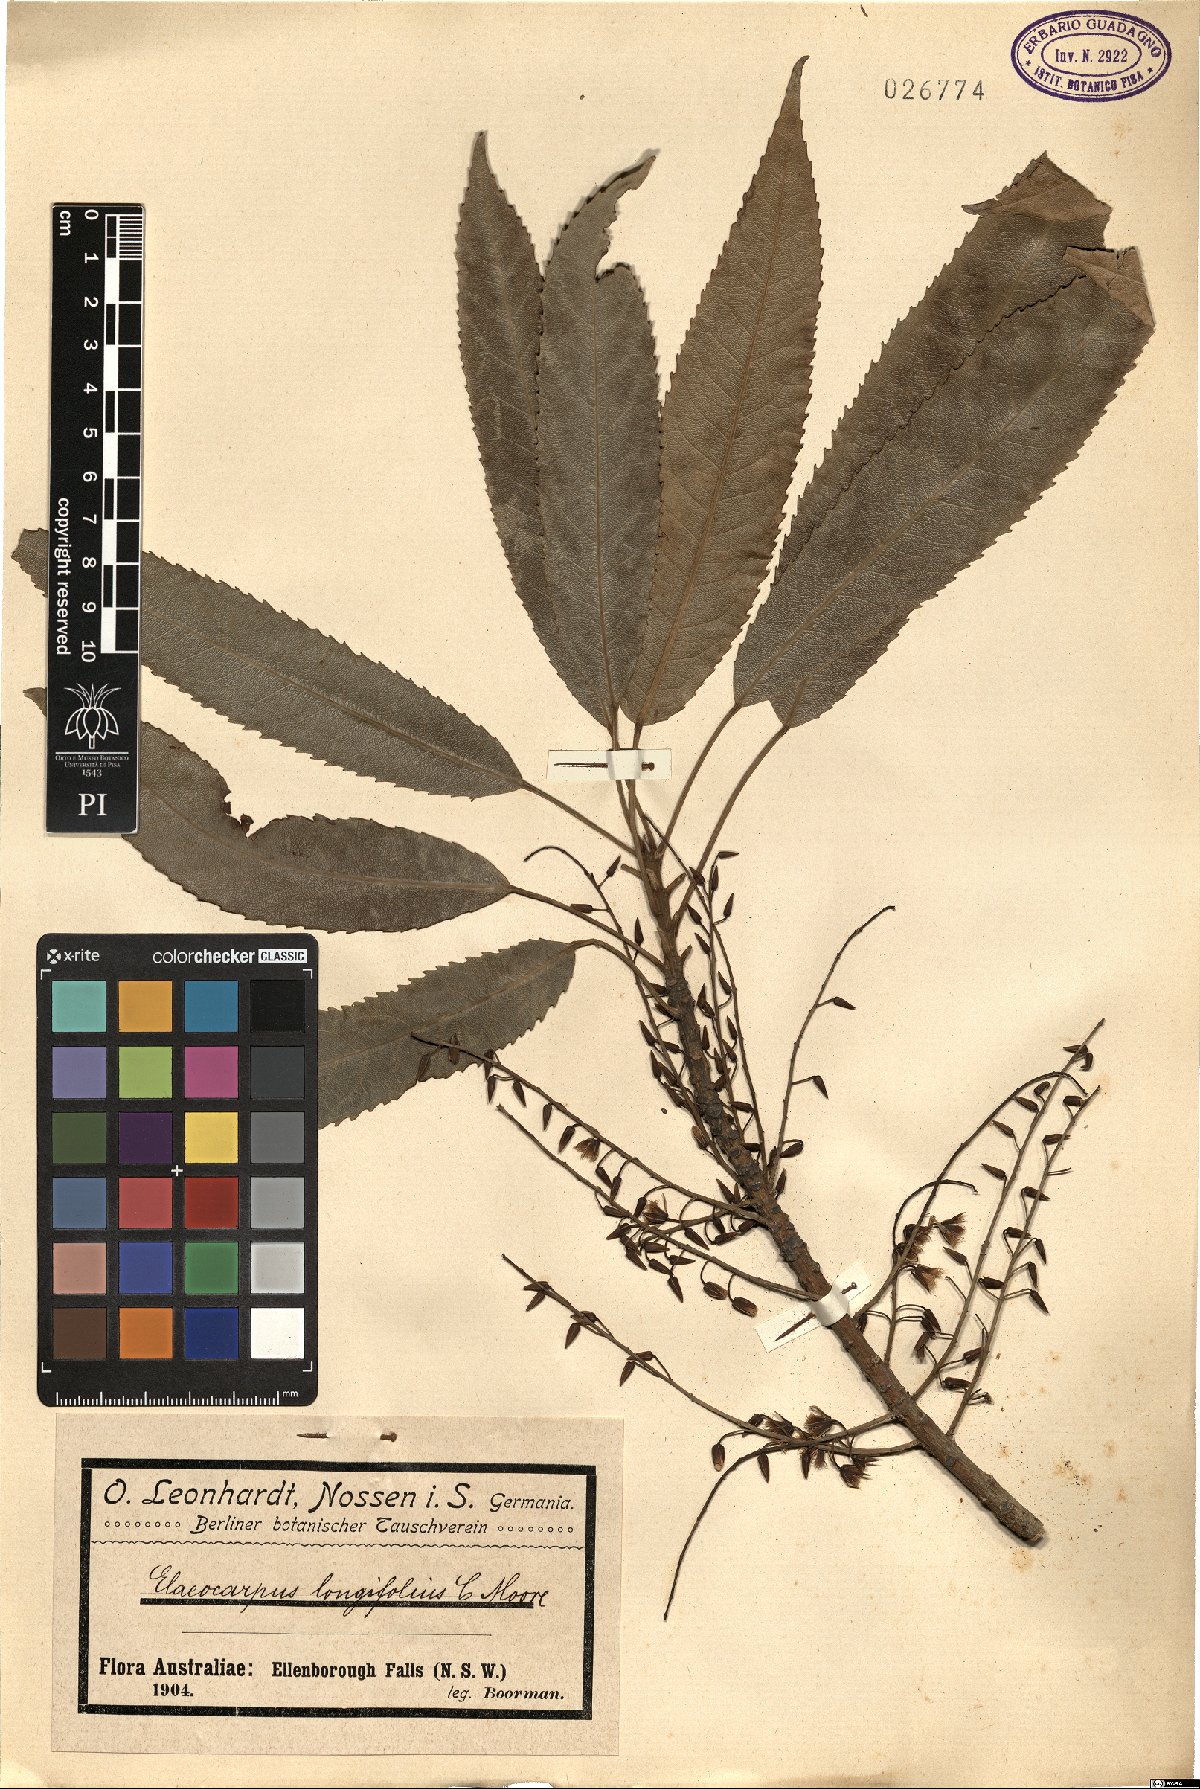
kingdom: Plantae
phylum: Tracheophyta
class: Magnoliopsida
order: Oxalidales
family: Elaeocarpaceae
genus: Elaeocarpus
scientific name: Elaeocarpus longifolius
